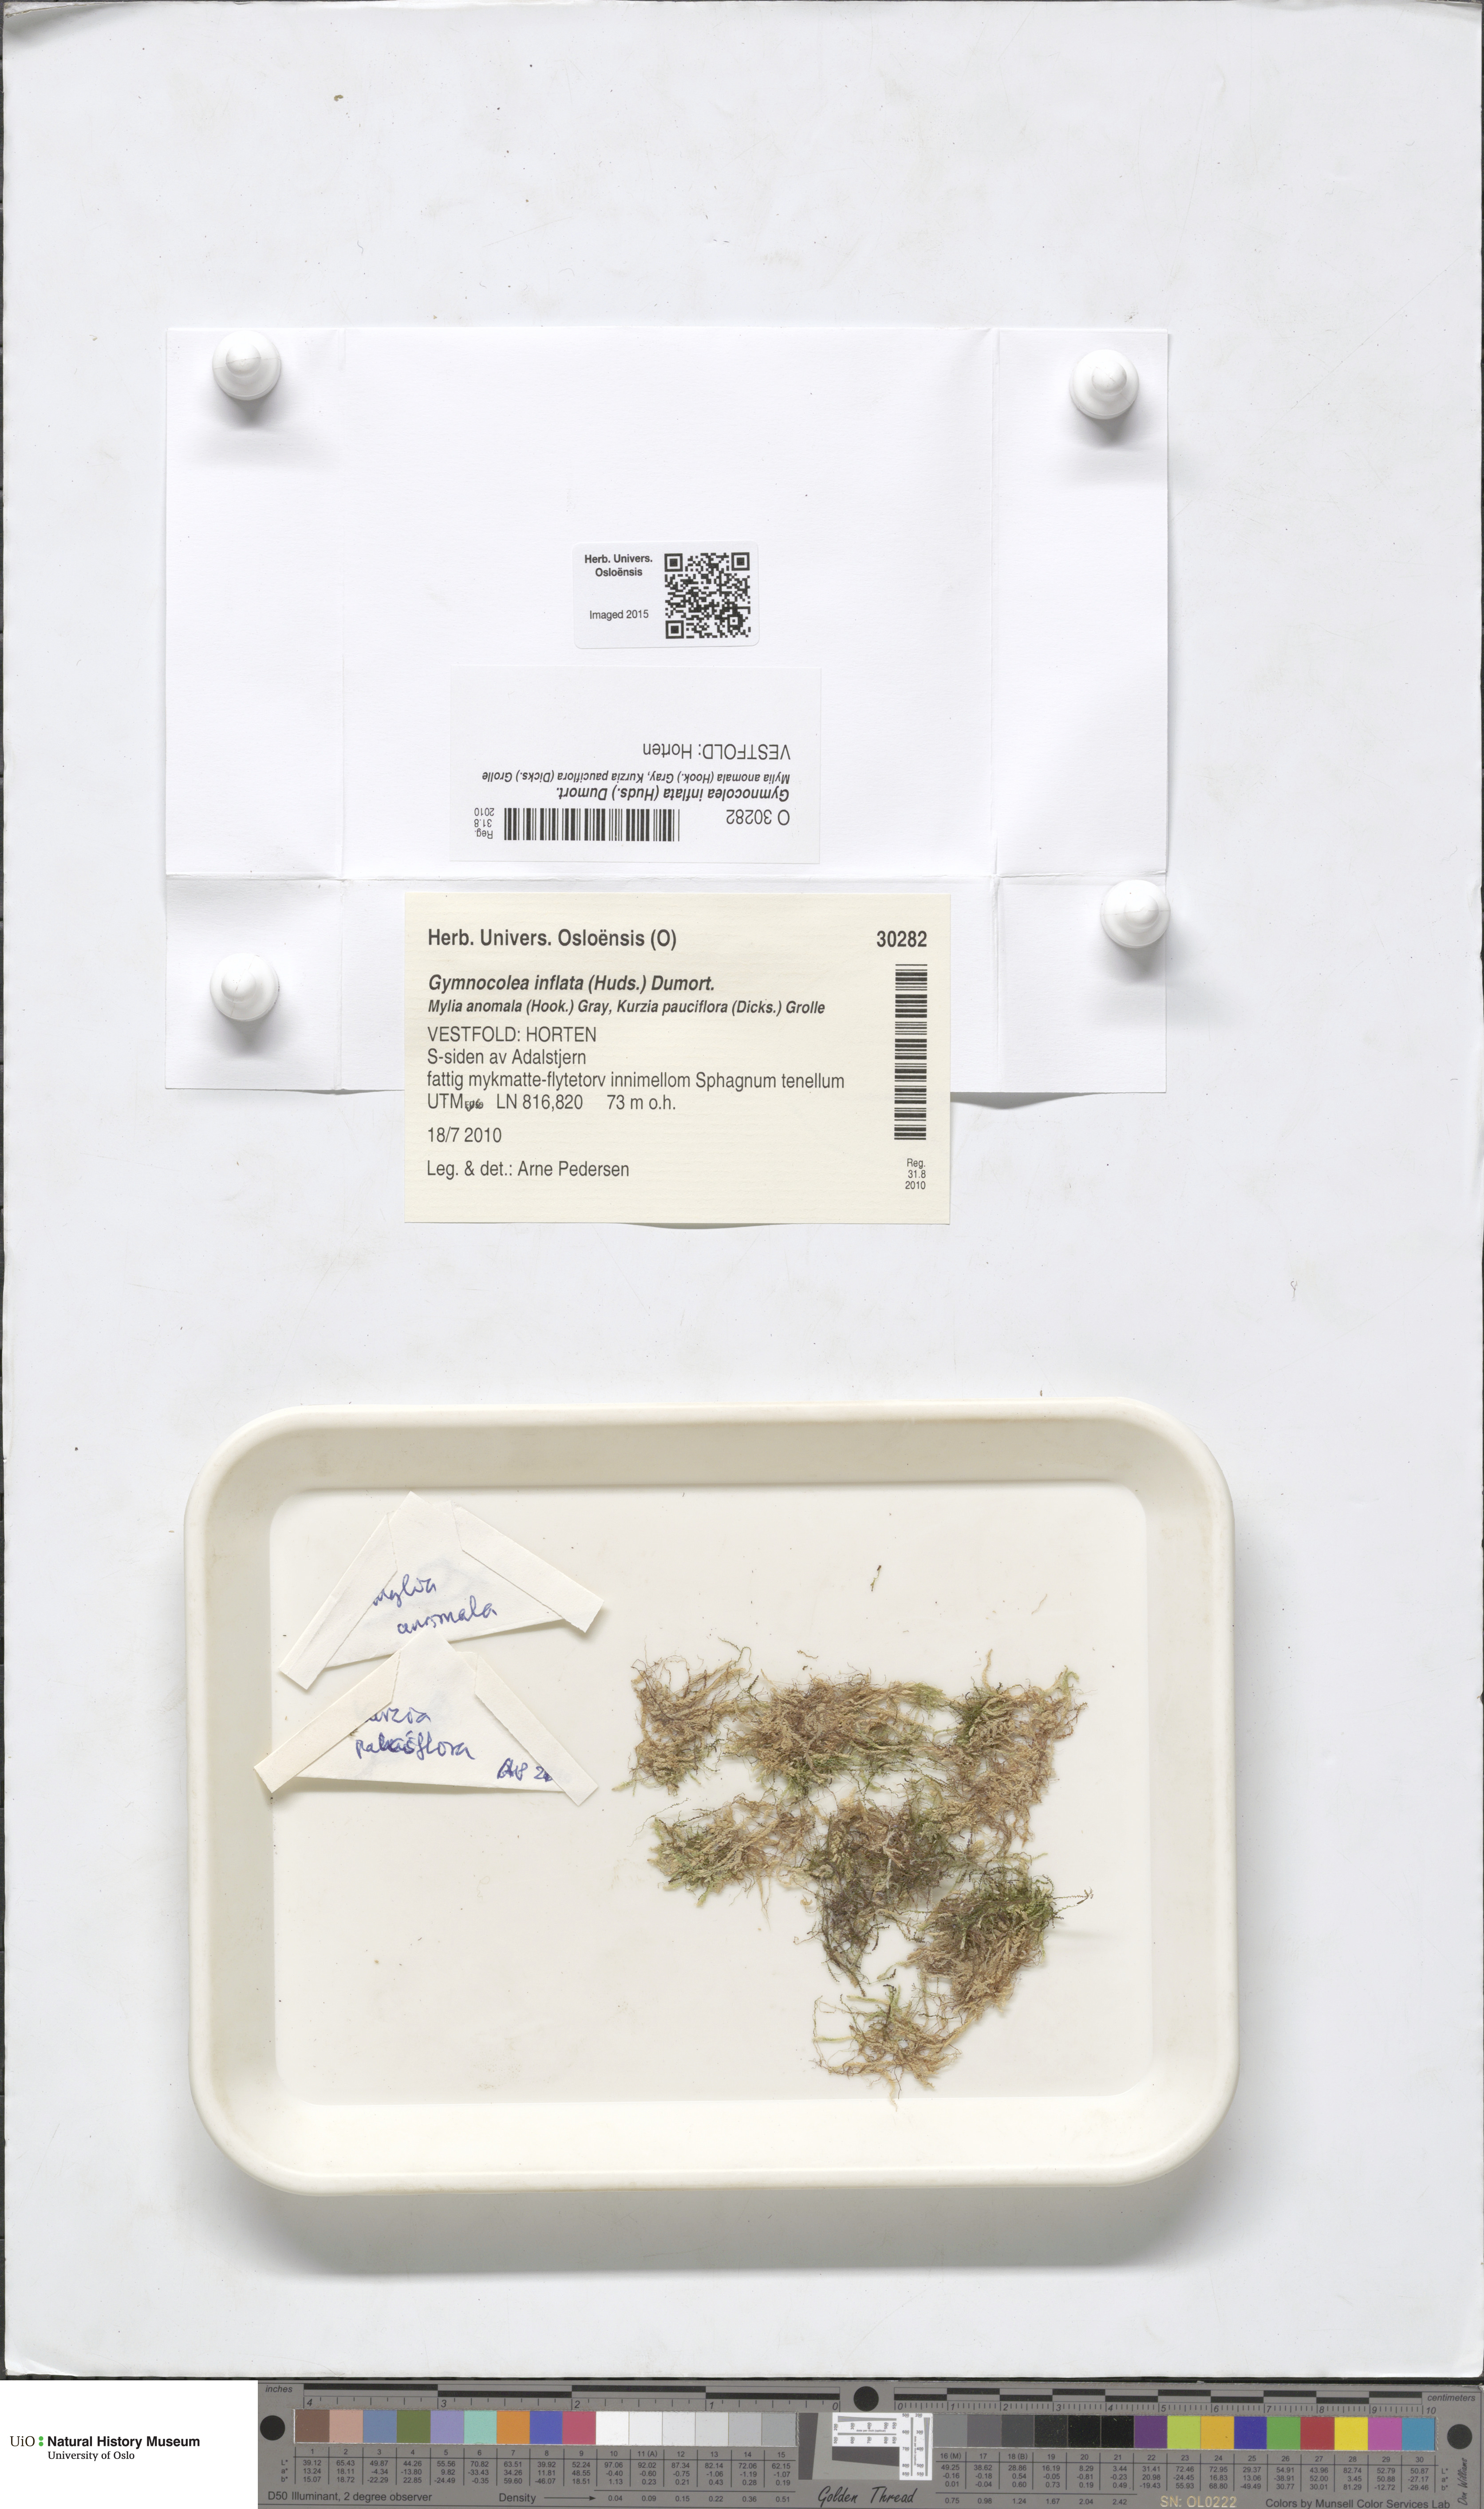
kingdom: Plantae
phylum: Marchantiophyta
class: Jungermanniopsida
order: Jungermanniales
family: Anastrophyllaceae
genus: Gymnocolea
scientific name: Gymnocolea inflata
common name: Inflated notchwort
